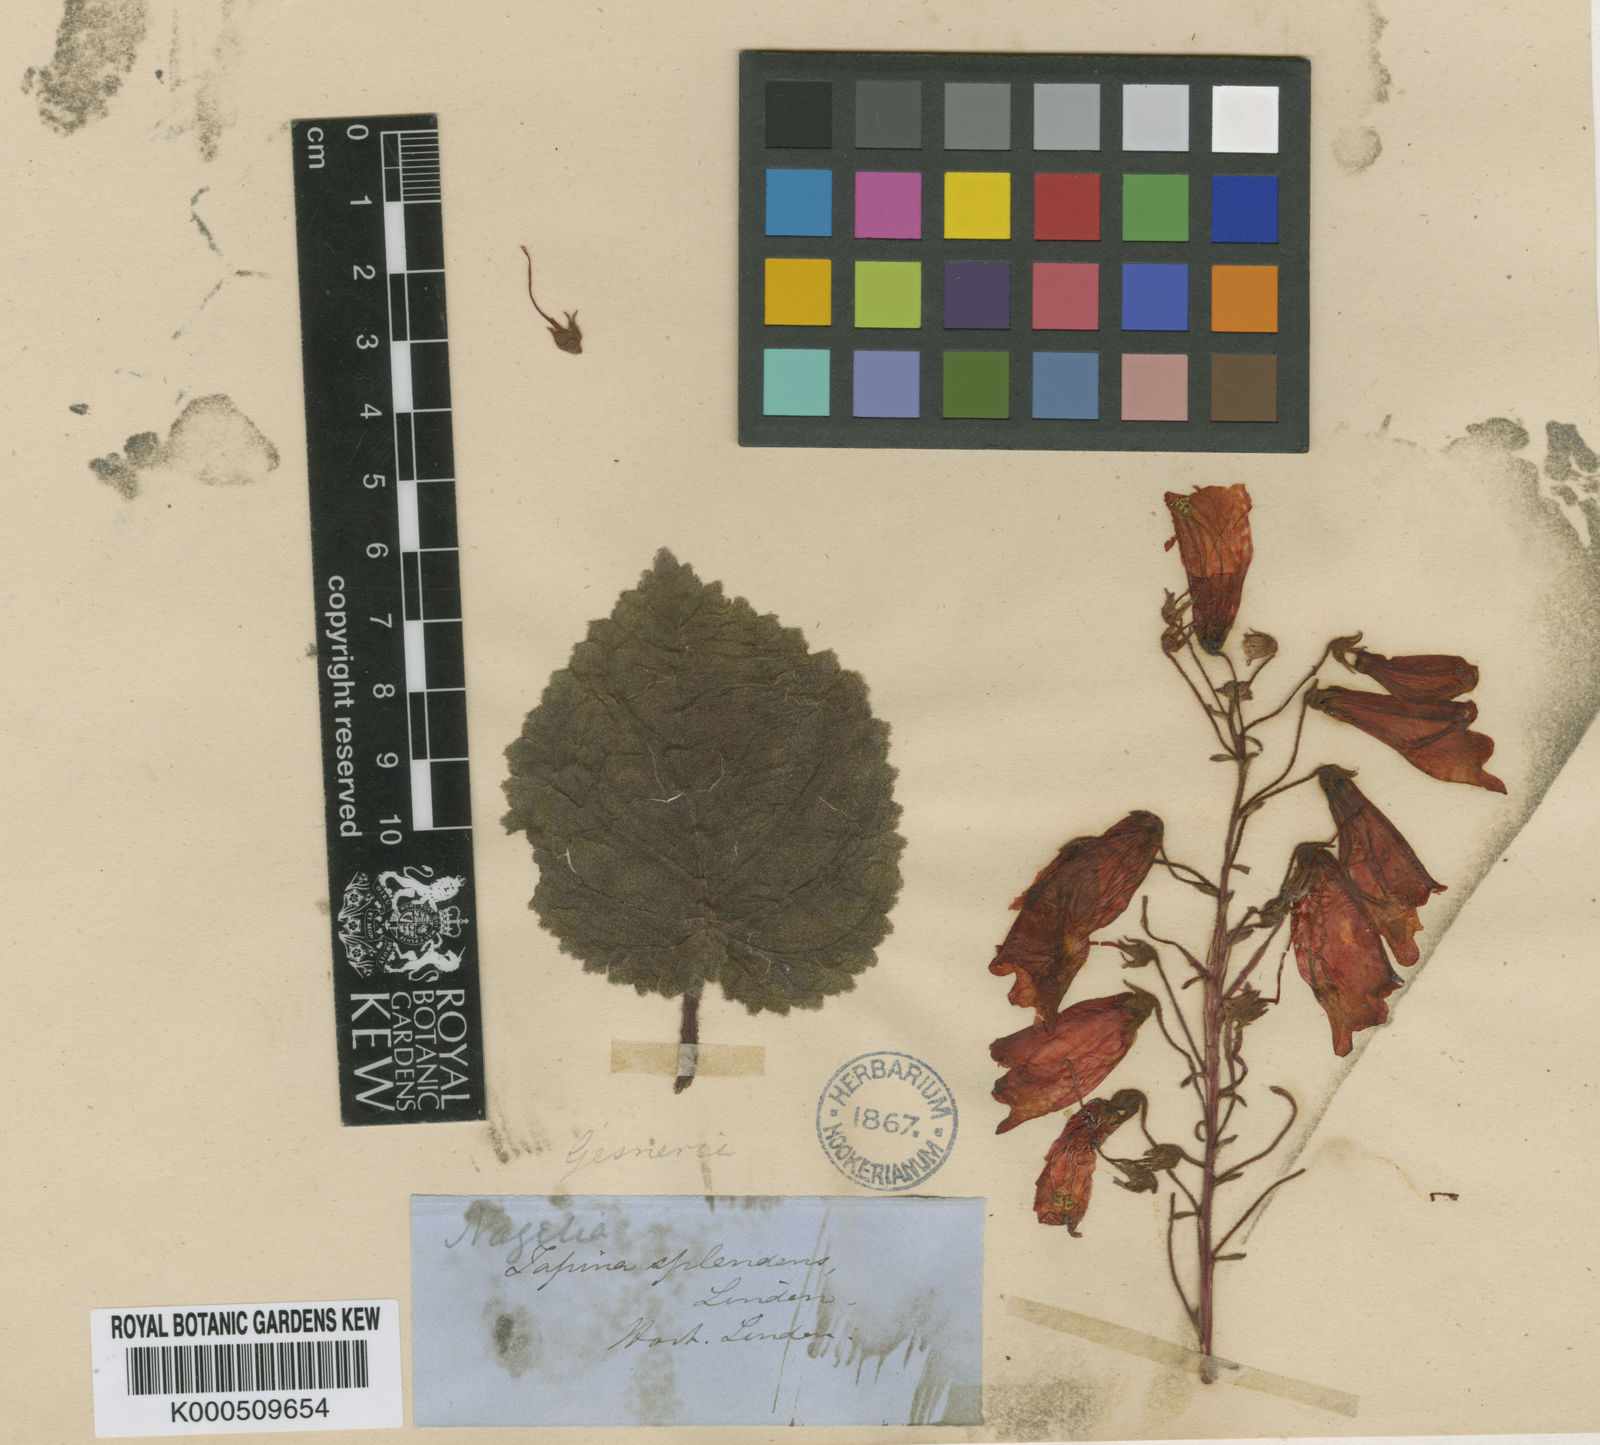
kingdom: Plantae
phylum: Tracheophyta
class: Magnoliopsida
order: Lamiales
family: Gesneriaceae
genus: Smithiantha
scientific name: Smithiantha cinnabarina
